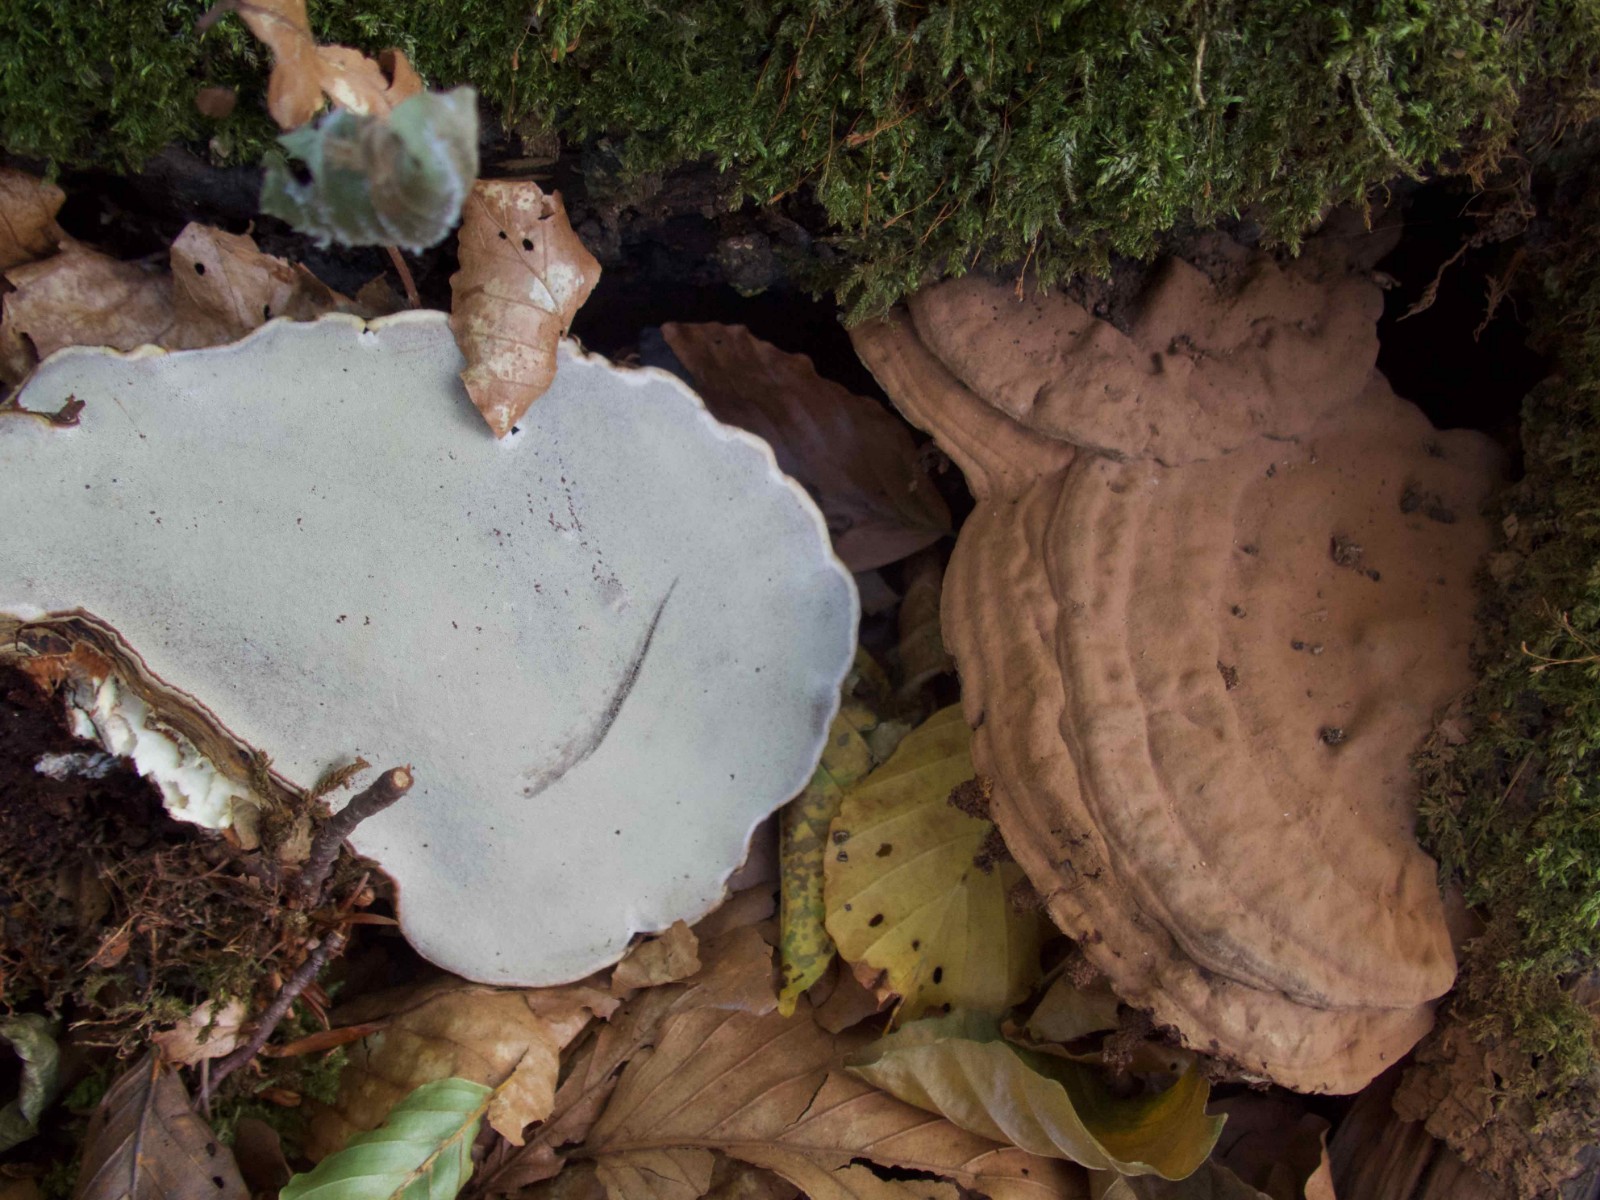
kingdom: Fungi
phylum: Basidiomycota
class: Agaricomycetes
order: Polyporales
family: Polyporaceae
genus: Ganoderma
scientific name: Ganoderma applanatum
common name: flad lakporesvamp
